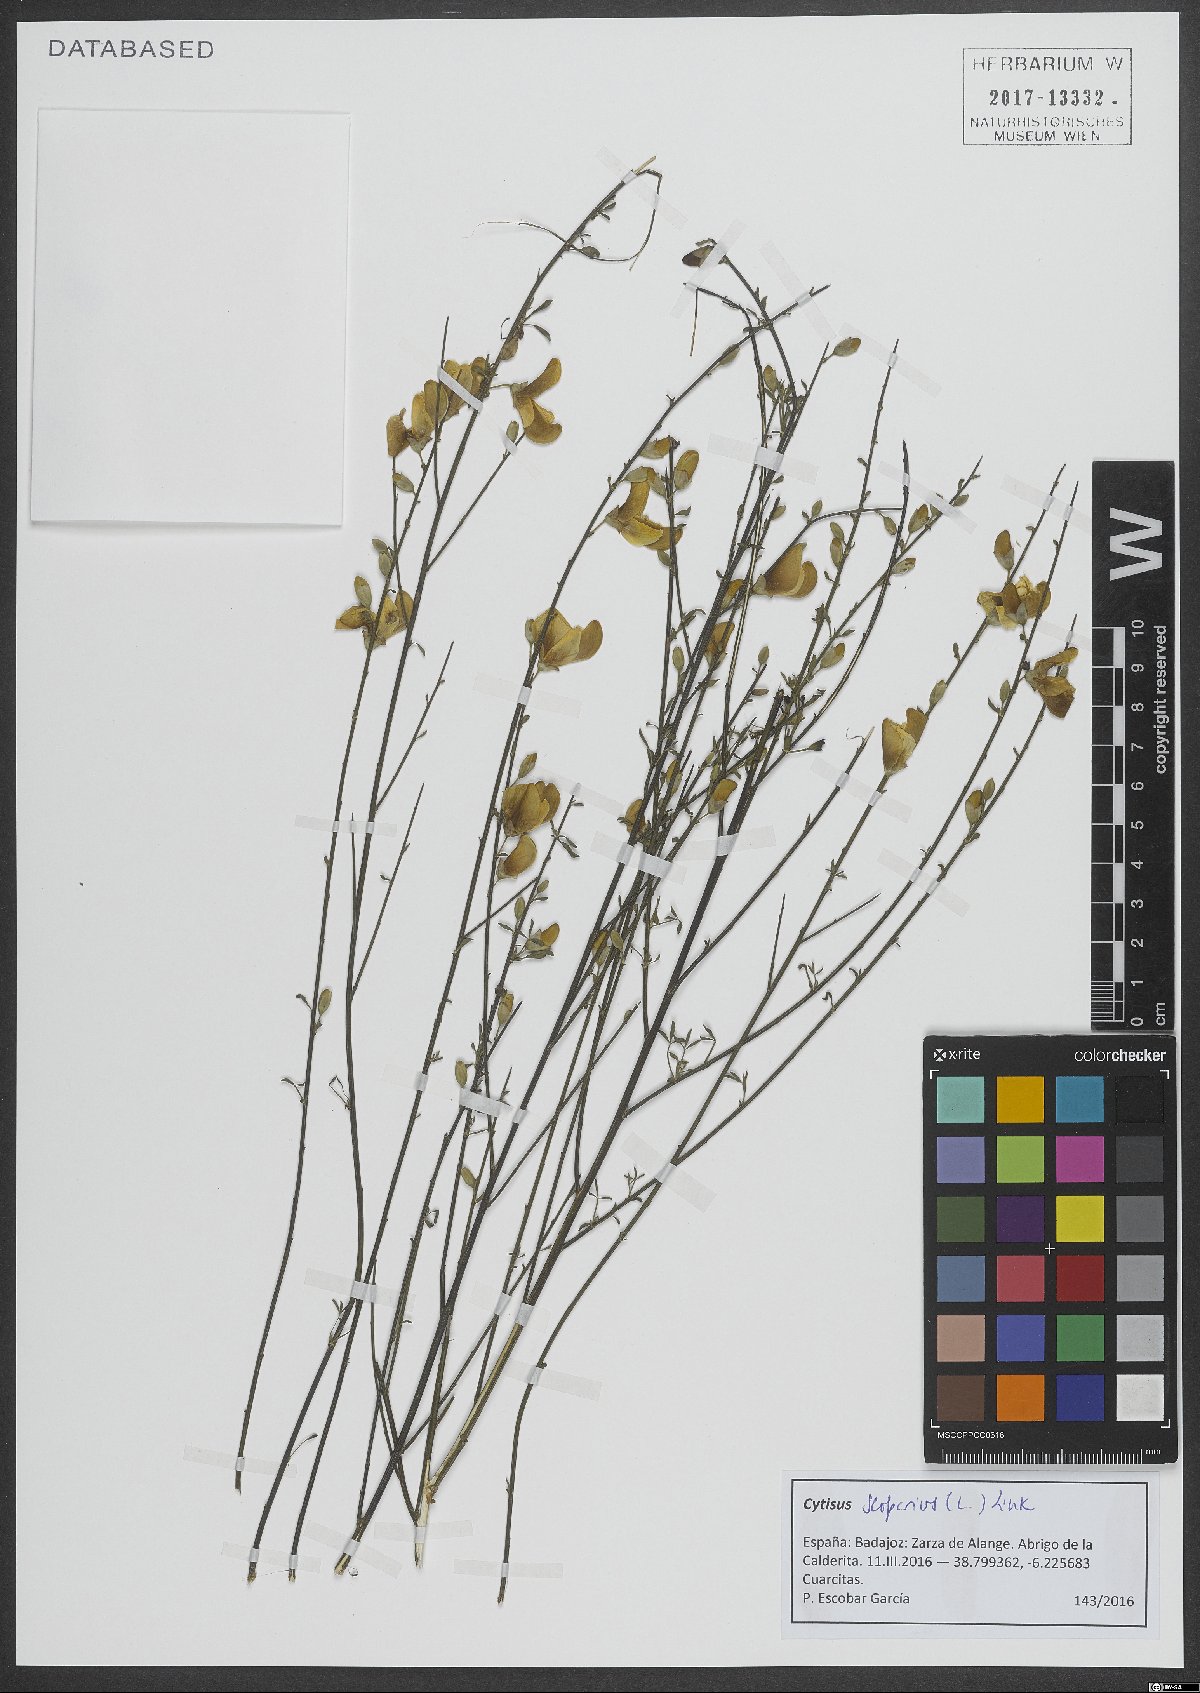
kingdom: Plantae
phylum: Tracheophyta
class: Magnoliopsida
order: Fabales
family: Fabaceae
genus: Cytisus
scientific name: Cytisus scoparius
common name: Scotch broom
